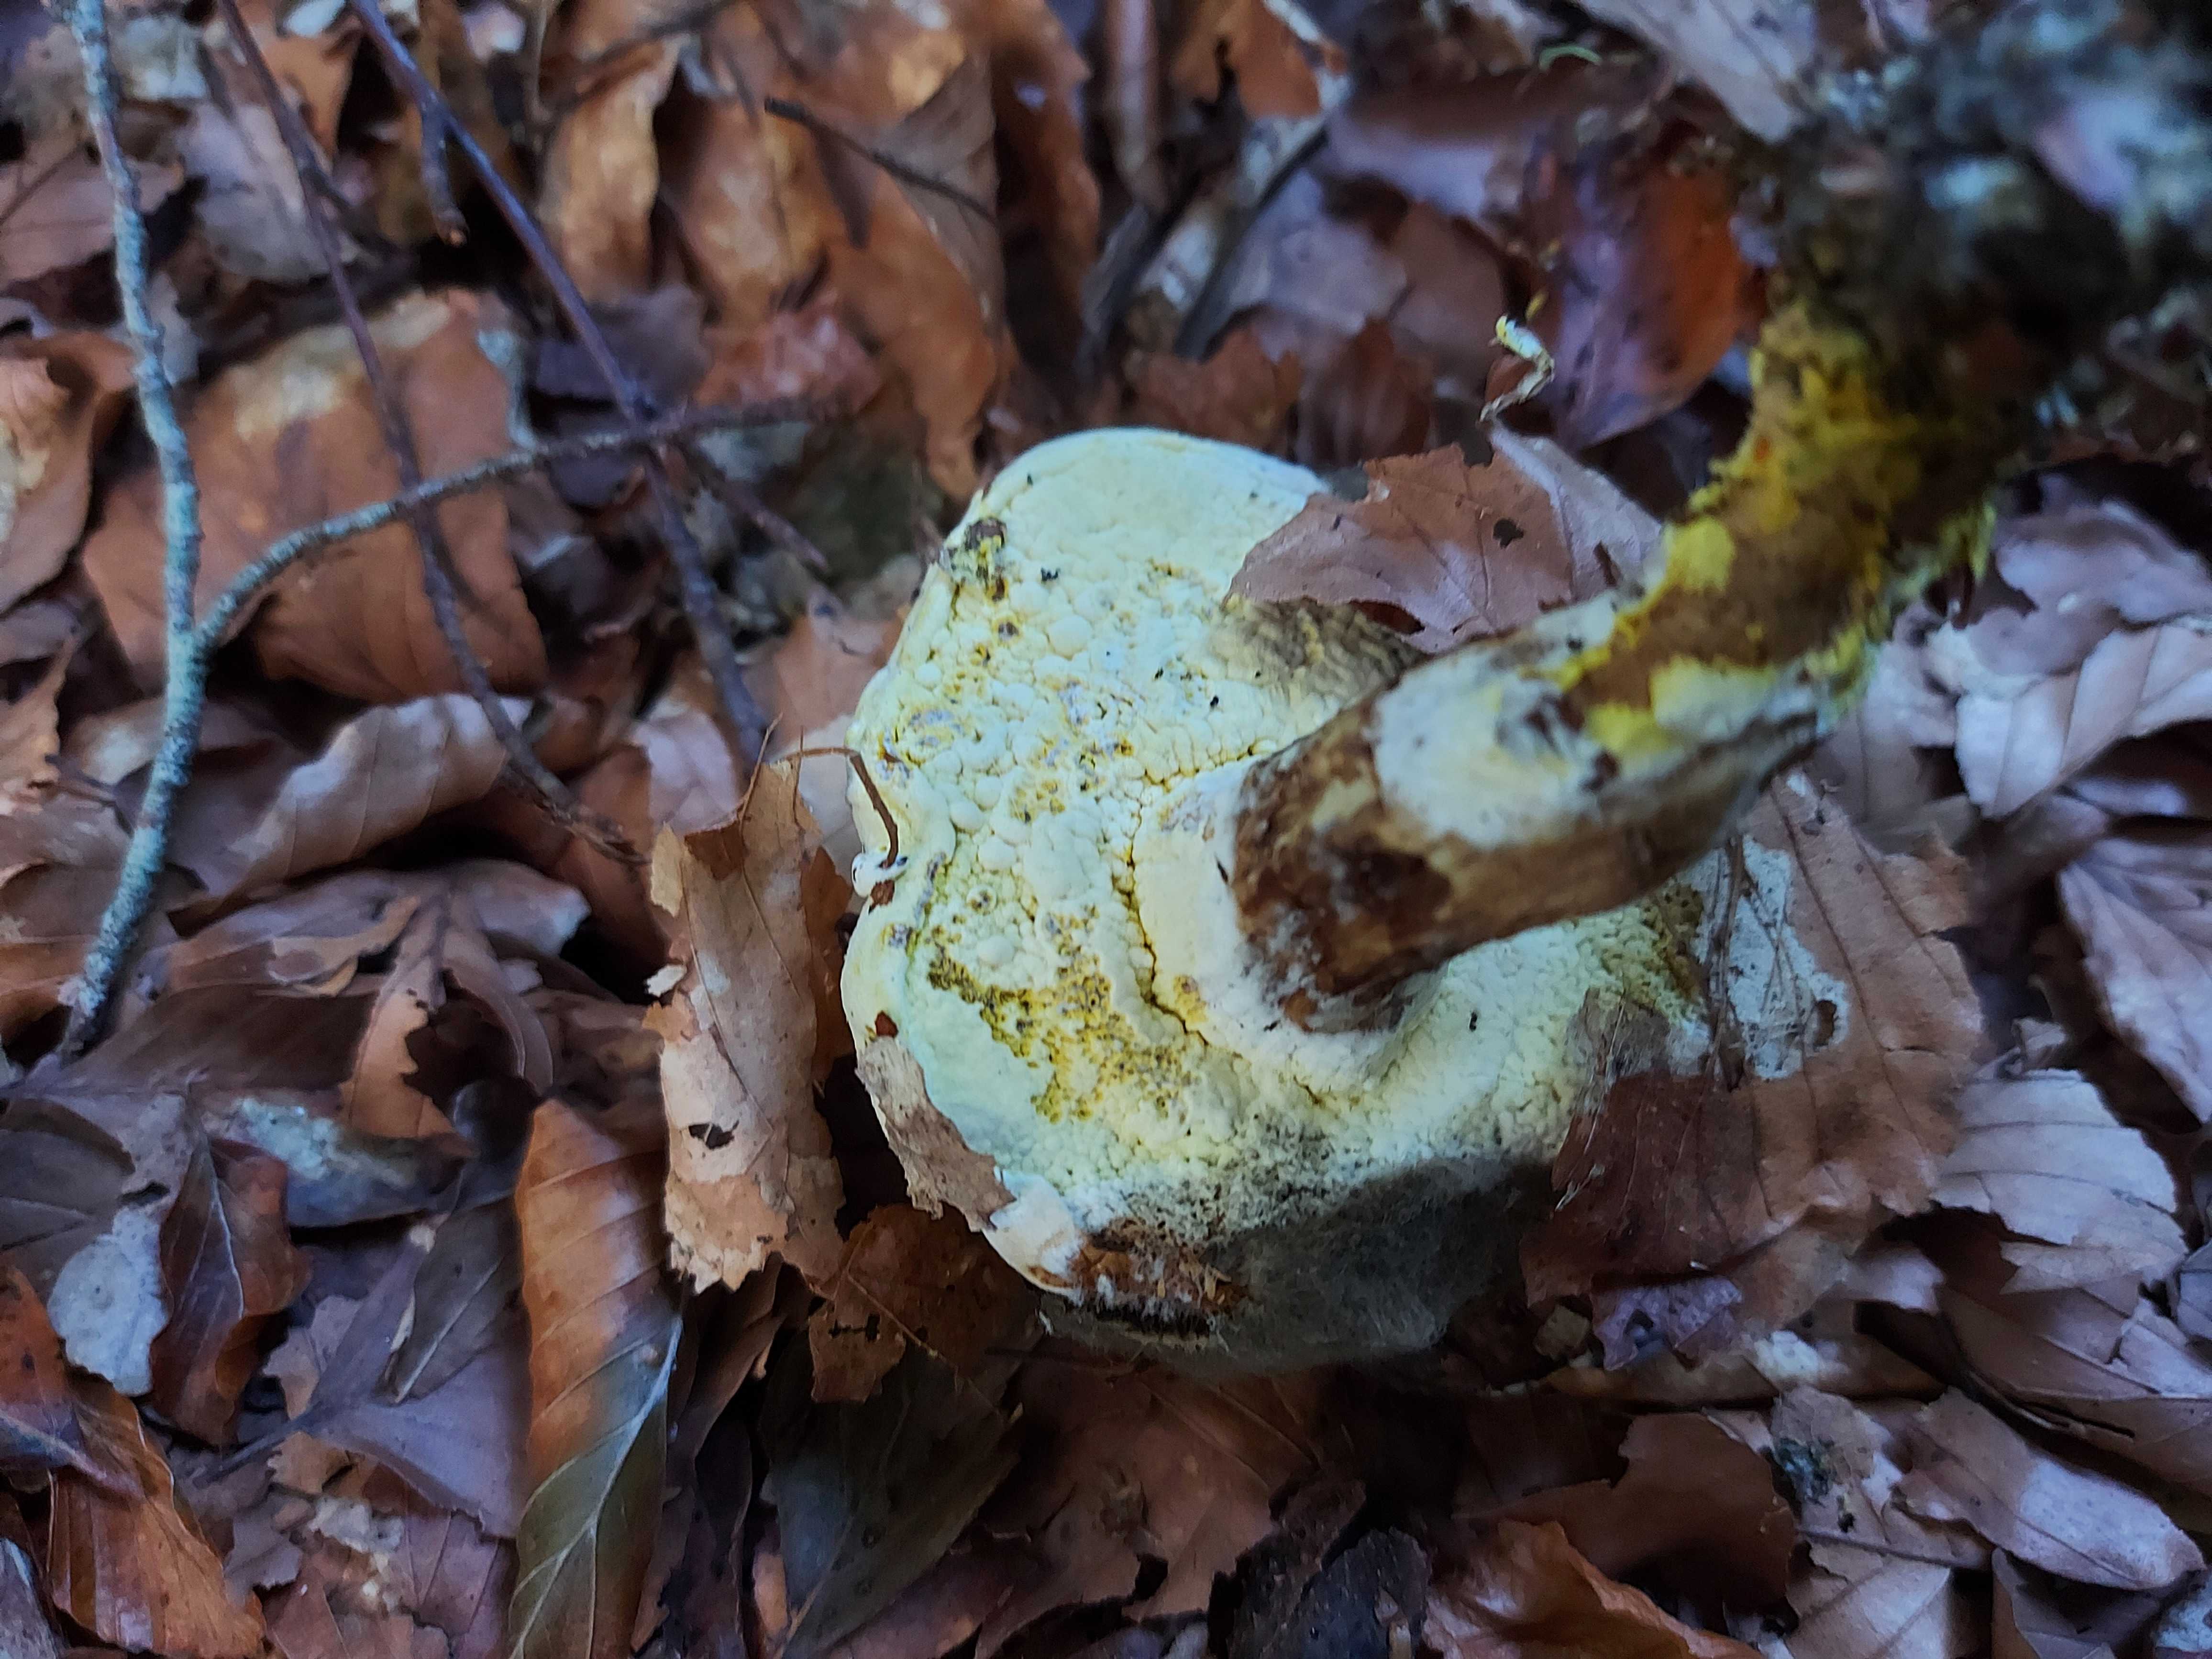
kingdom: Fungi
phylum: Ascomycota
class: Sordariomycetes
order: Hypocreales
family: Hypocreaceae
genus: Hypomyces
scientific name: Hypomyces microspermus
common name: dværgrørhat-snylteskorpe
